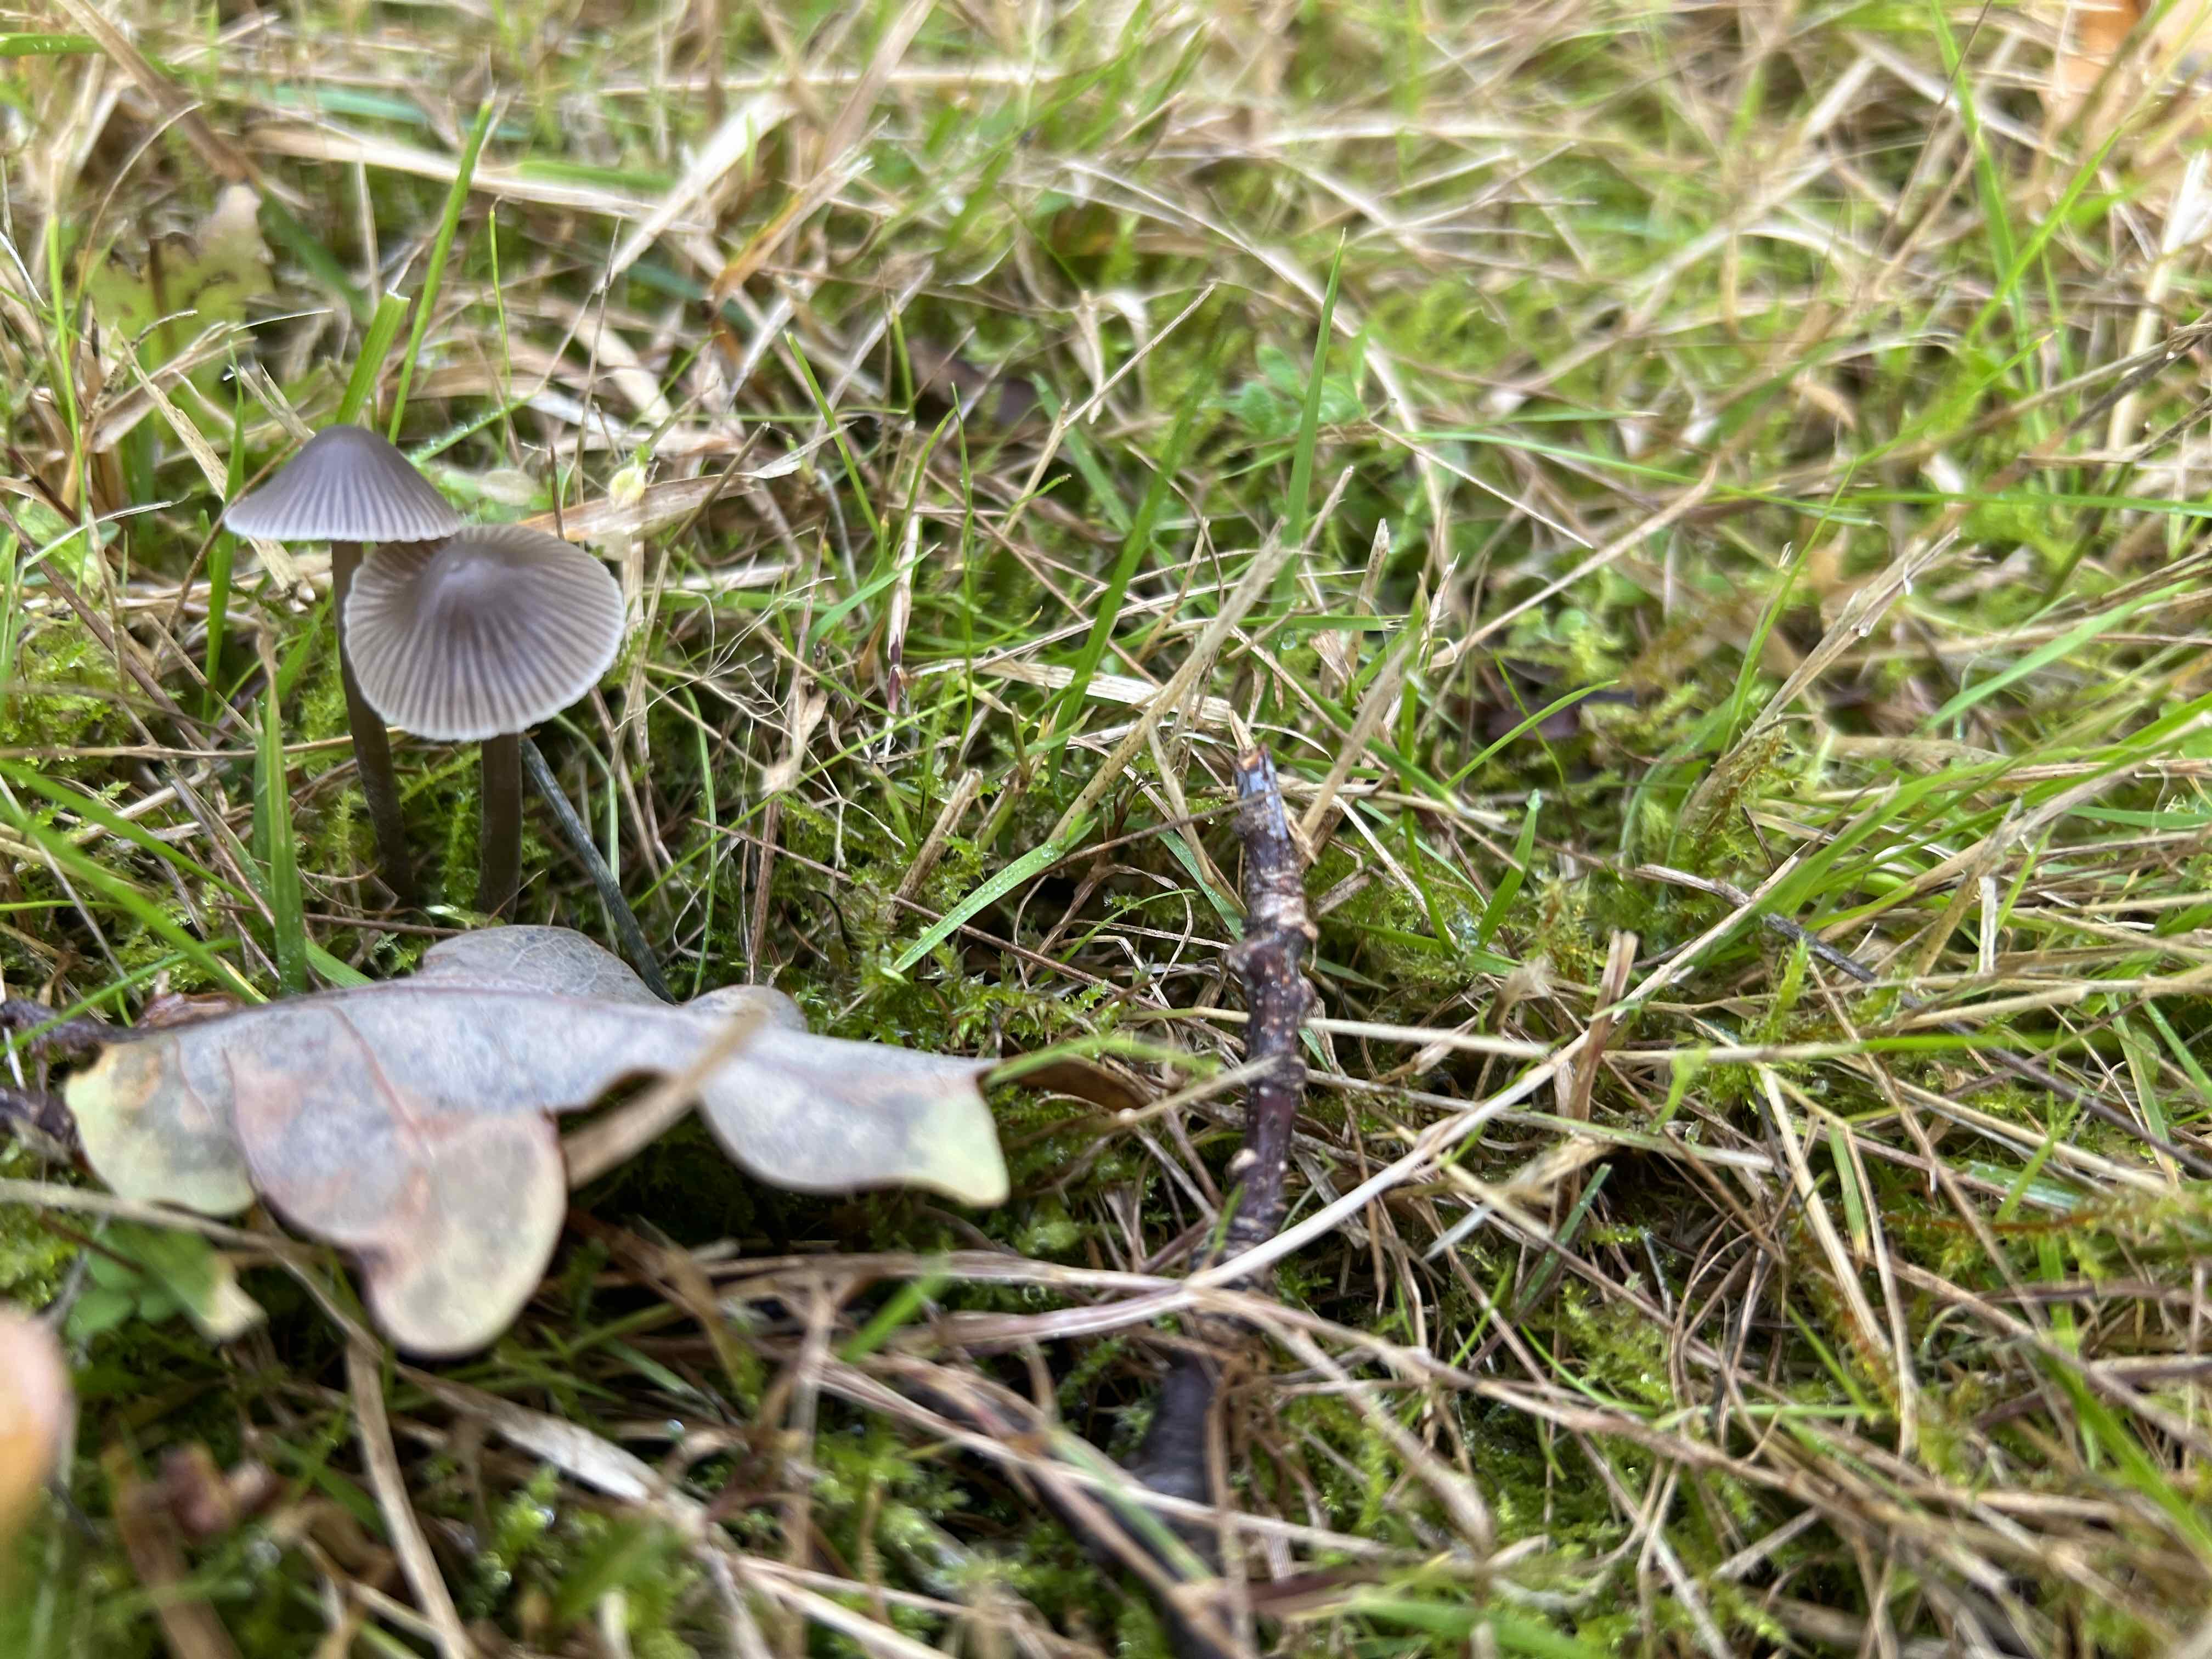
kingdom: Fungi
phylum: Basidiomycota
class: Agaricomycetes
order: Agaricales
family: Mycenaceae
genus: Mycena
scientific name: Mycena
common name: huesvamp
